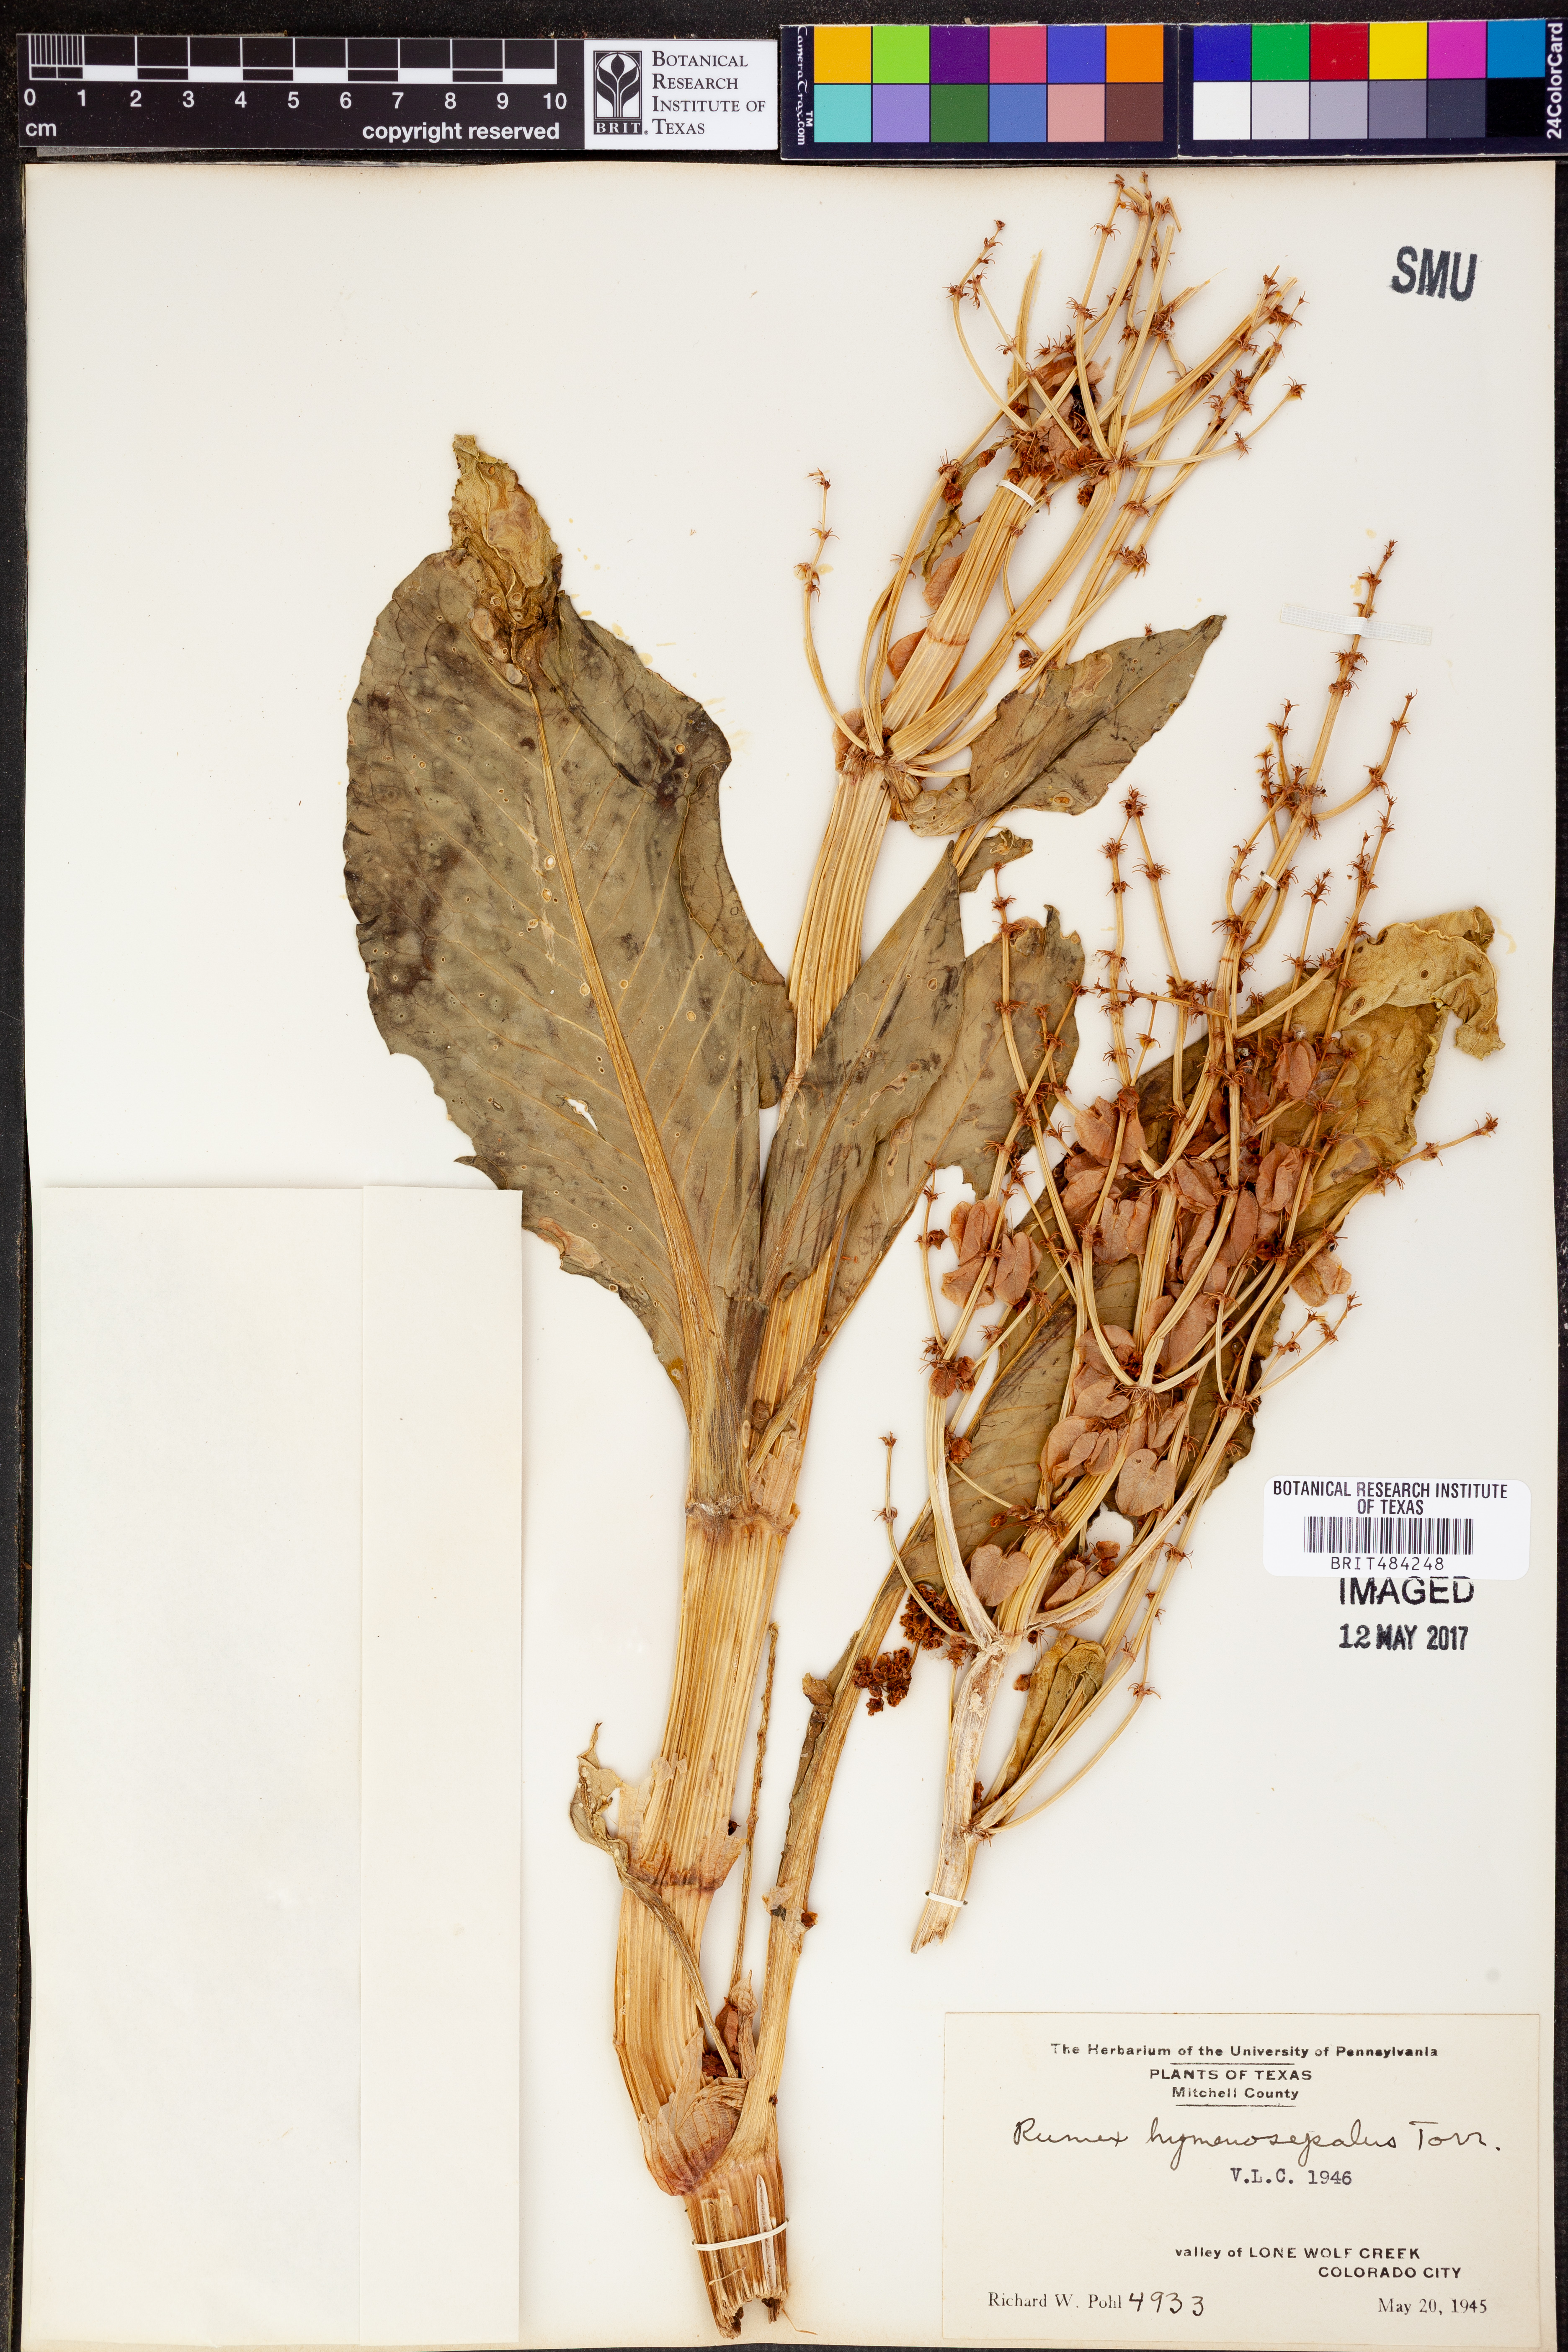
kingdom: Plantae
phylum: Tracheophyta
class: Magnoliopsida
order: Caryophyllales
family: Polygonaceae
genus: Rumex
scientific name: Rumex hymenosepalus
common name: Ganagra
